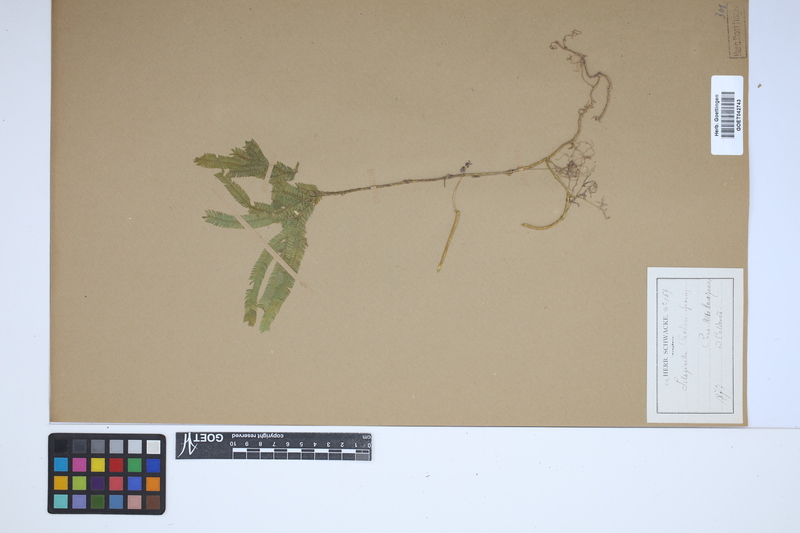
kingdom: Plantae
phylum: Tracheophyta
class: Lycopodiopsida
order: Selaginellales
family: Selaginellaceae
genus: Selaginella
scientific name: Selaginella parkeri
